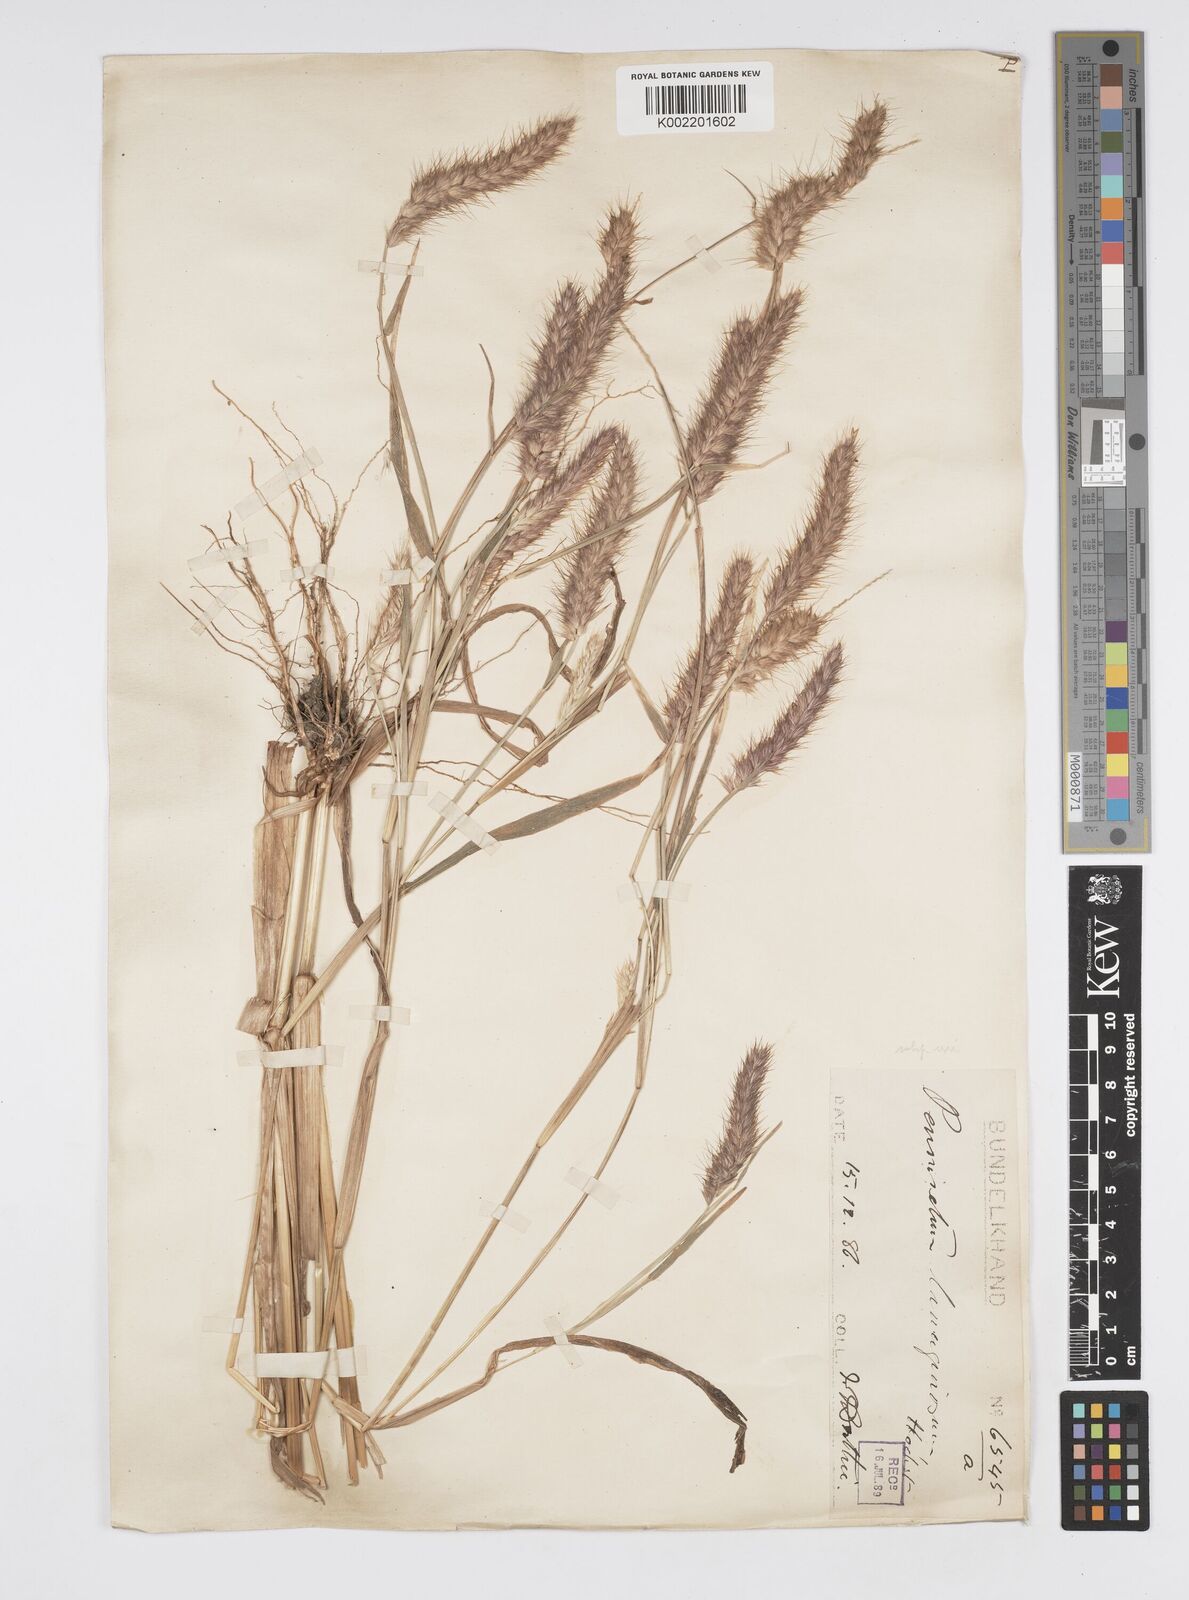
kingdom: Plantae
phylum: Tracheophyta
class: Liliopsida
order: Poales
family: Poaceae
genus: Cenchrus
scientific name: Cenchrus pedicellatus
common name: Hairy fountain grass
